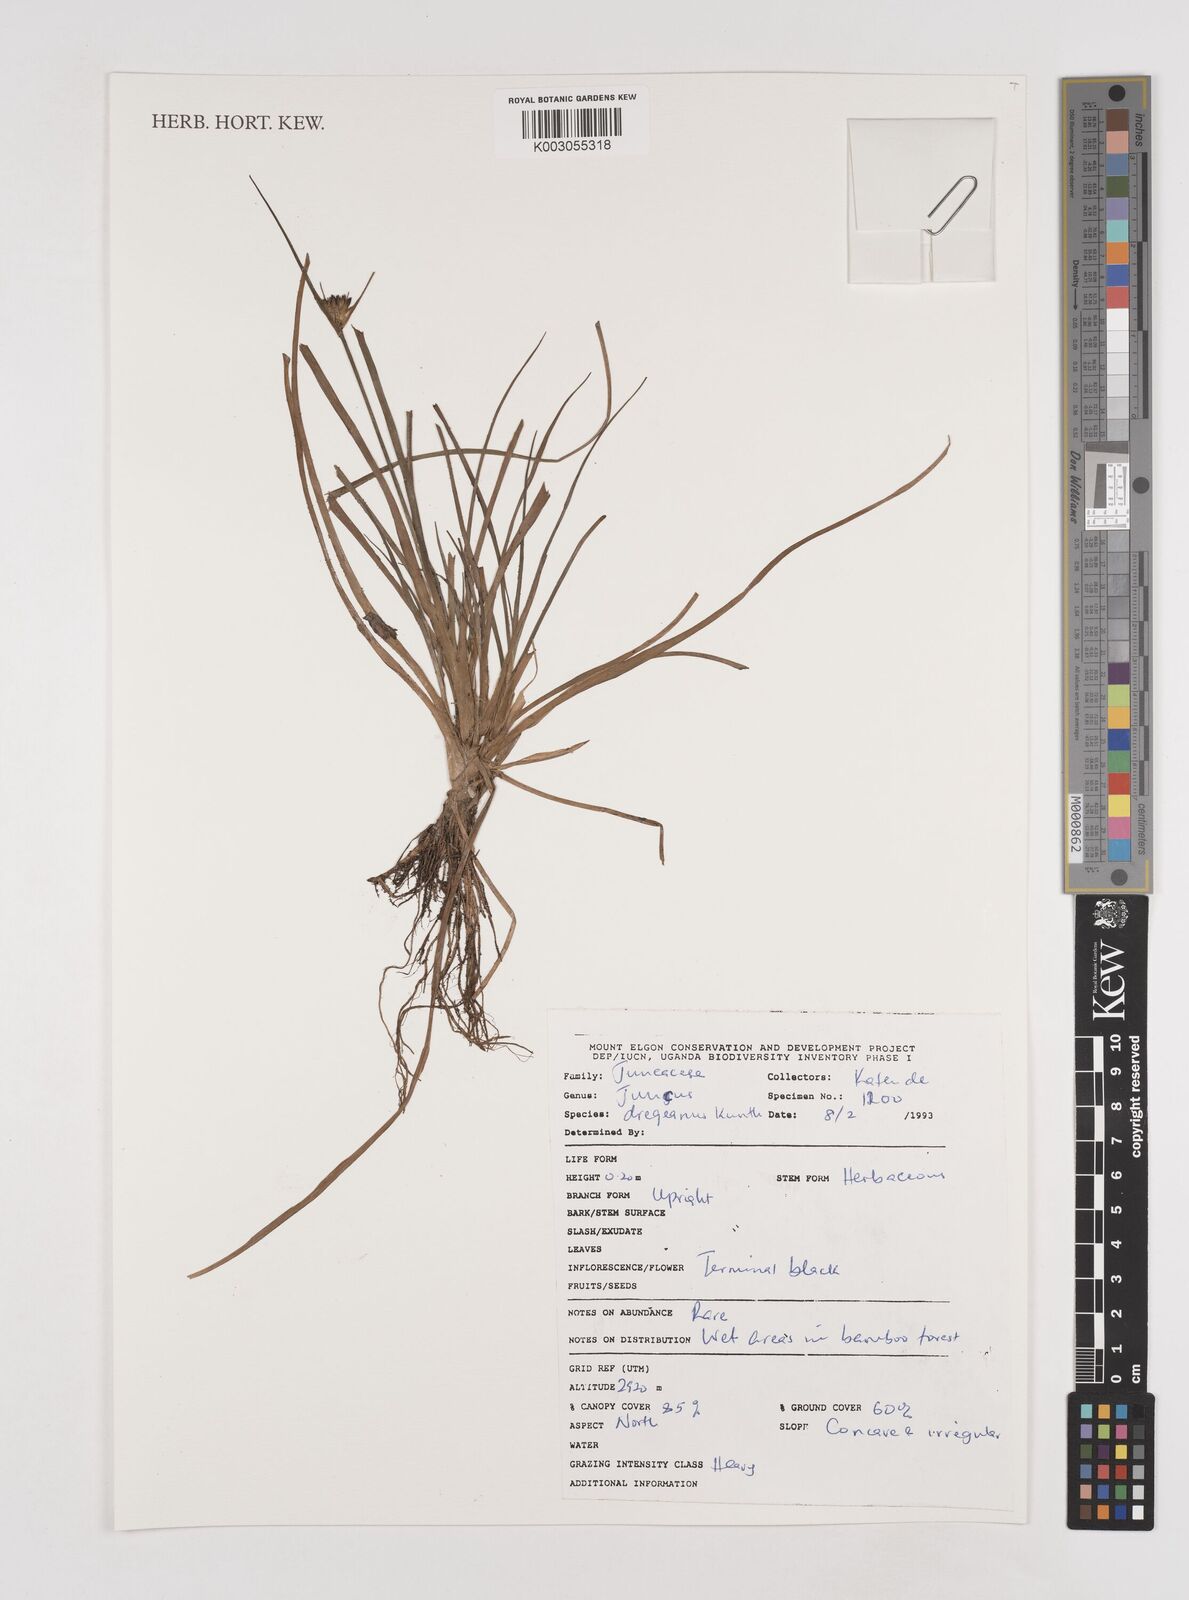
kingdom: Plantae
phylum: Tracheophyta
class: Liliopsida
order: Poales
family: Juncaceae
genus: Juncus
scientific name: Juncus dregeanus
